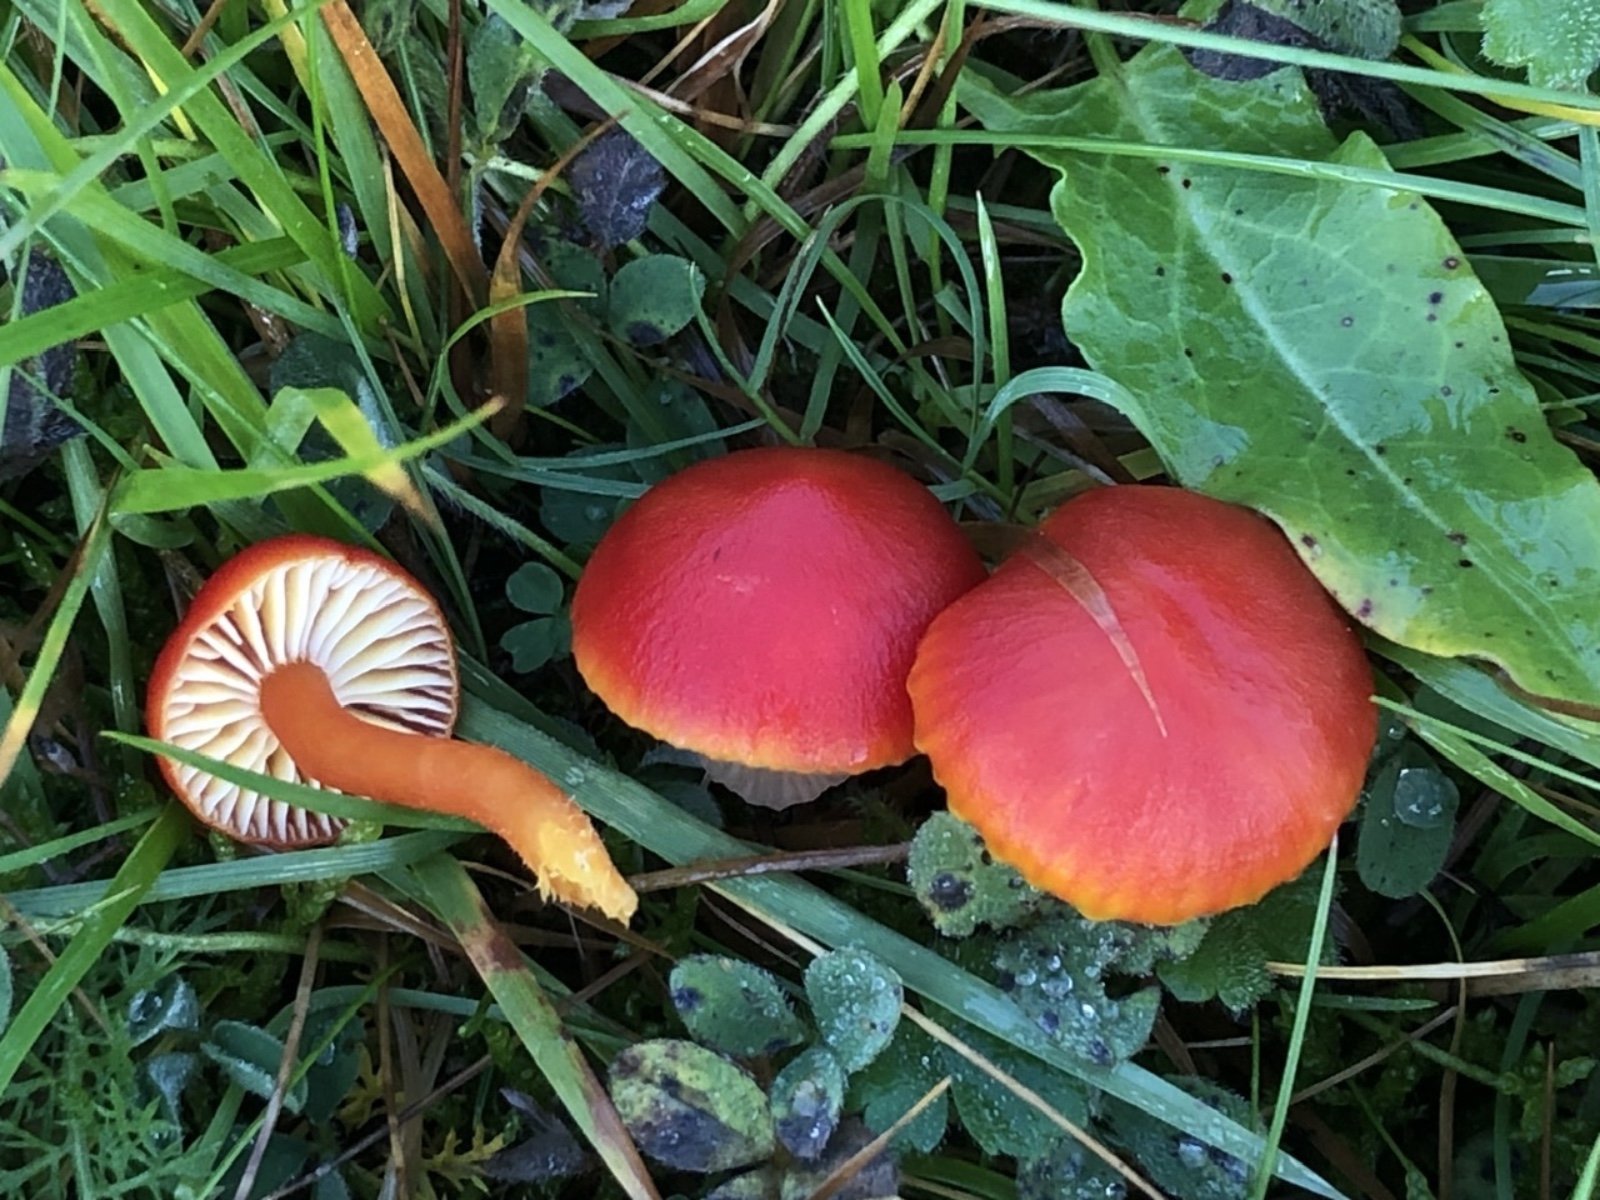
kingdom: Fungi
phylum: Basidiomycota
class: Agaricomycetes
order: Agaricales
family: Hygrophoraceae
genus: Hygrocybe
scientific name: Hygrocybe
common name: vokshat
